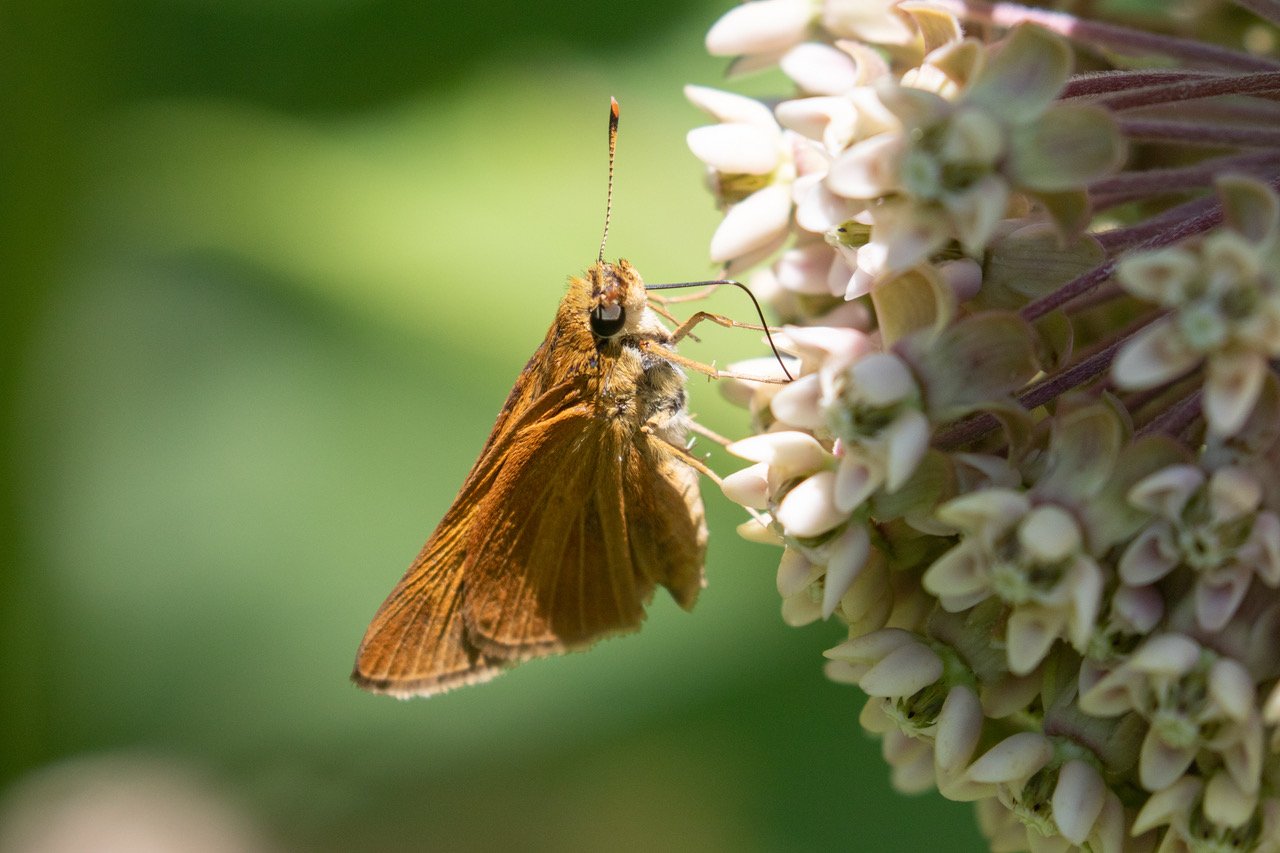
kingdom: Animalia
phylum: Arthropoda
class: Insecta
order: Lepidoptera
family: Hesperiidae
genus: Euphyes
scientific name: Euphyes dion
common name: Dion Skipper
